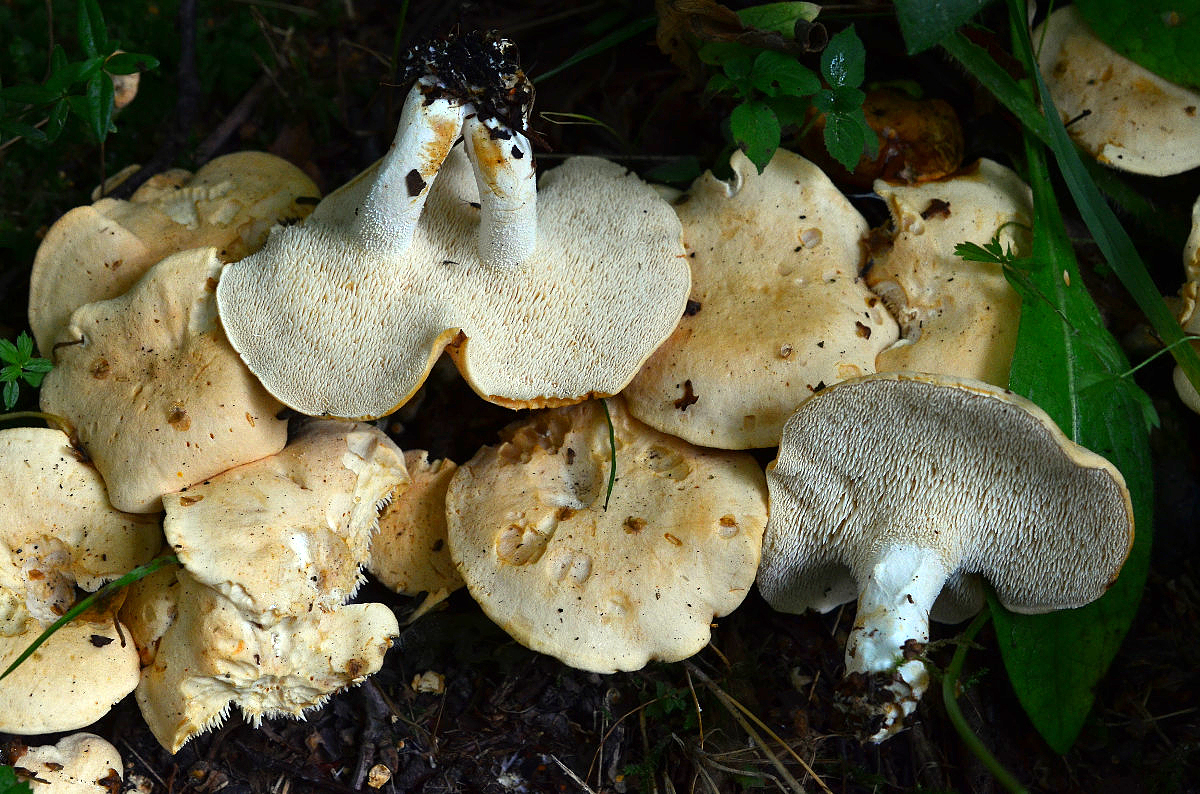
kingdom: Fungi
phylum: Basidiomycota
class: Agaricomycetes
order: Cantharellales
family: Hydnaceae
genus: Hydnum
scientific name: Hydnum magnorufescens
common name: brunende pigsvamp
